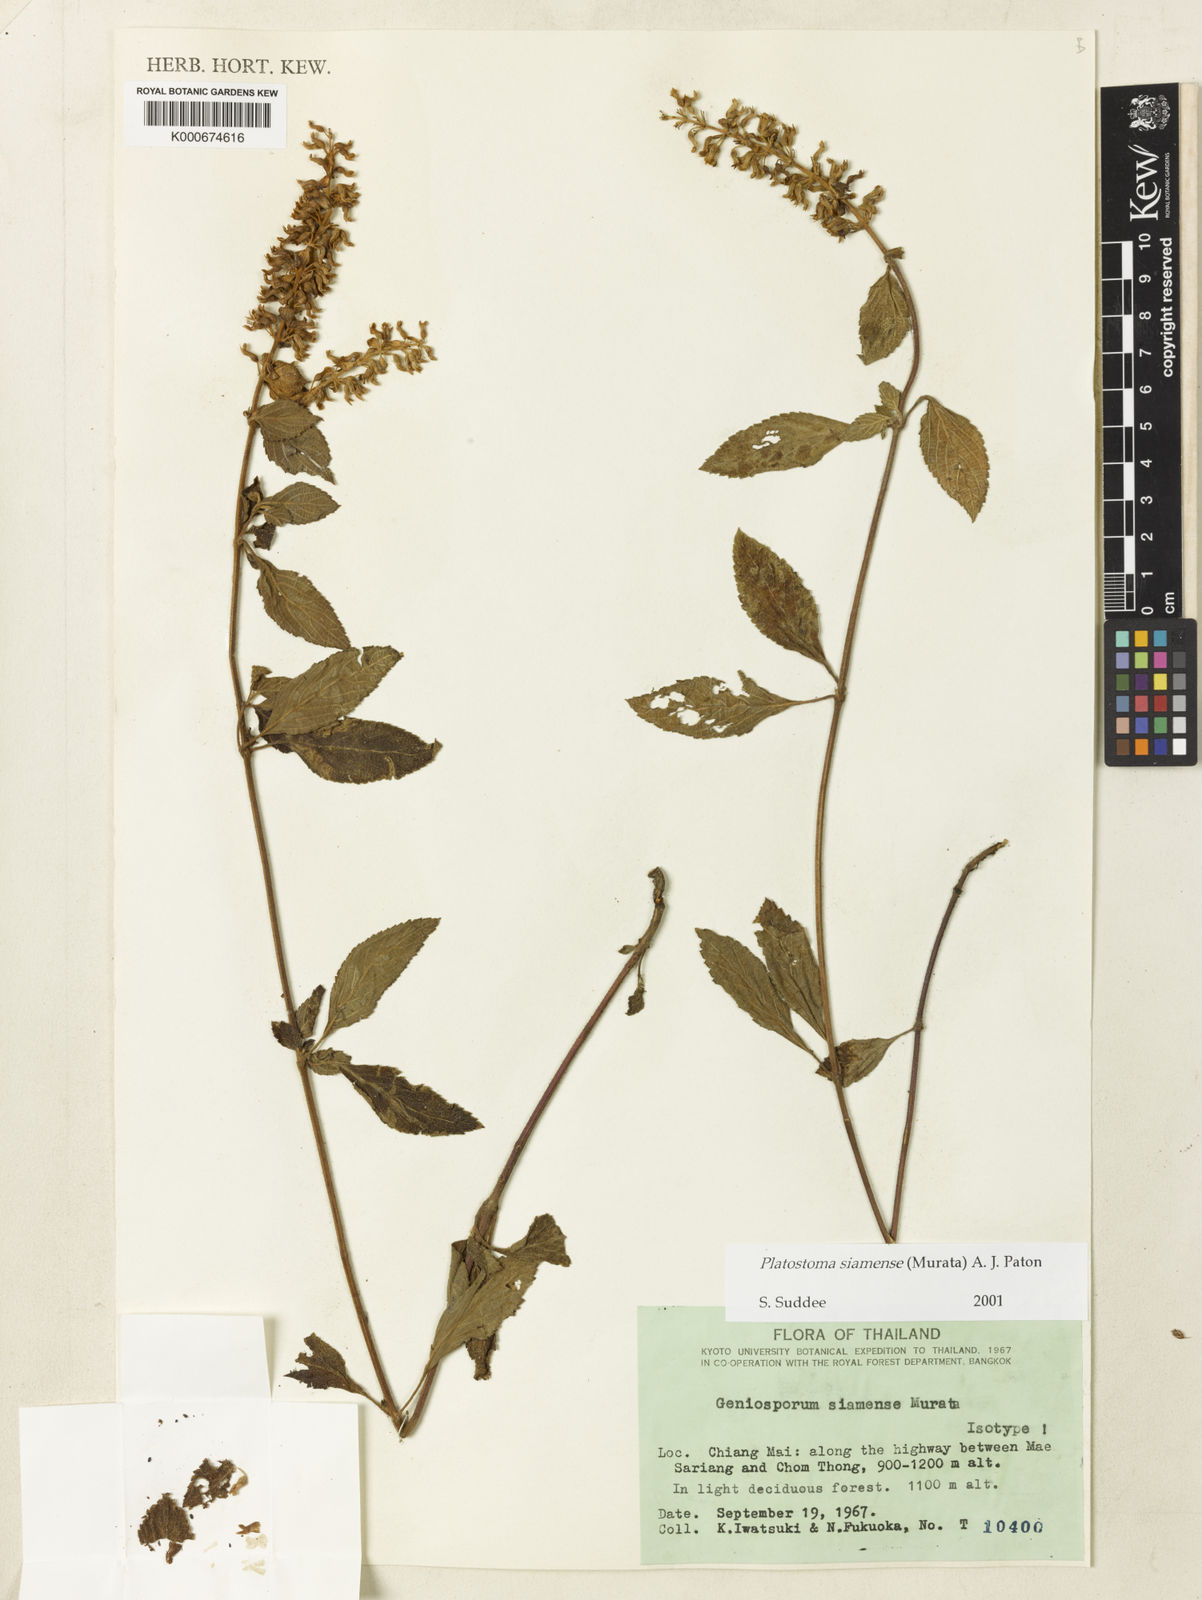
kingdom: Plantae
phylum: Tracheophyta
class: Magnoliopsida
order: Lamiales
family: Lamiaceae
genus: Platostoma
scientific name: Platostoma siamense
